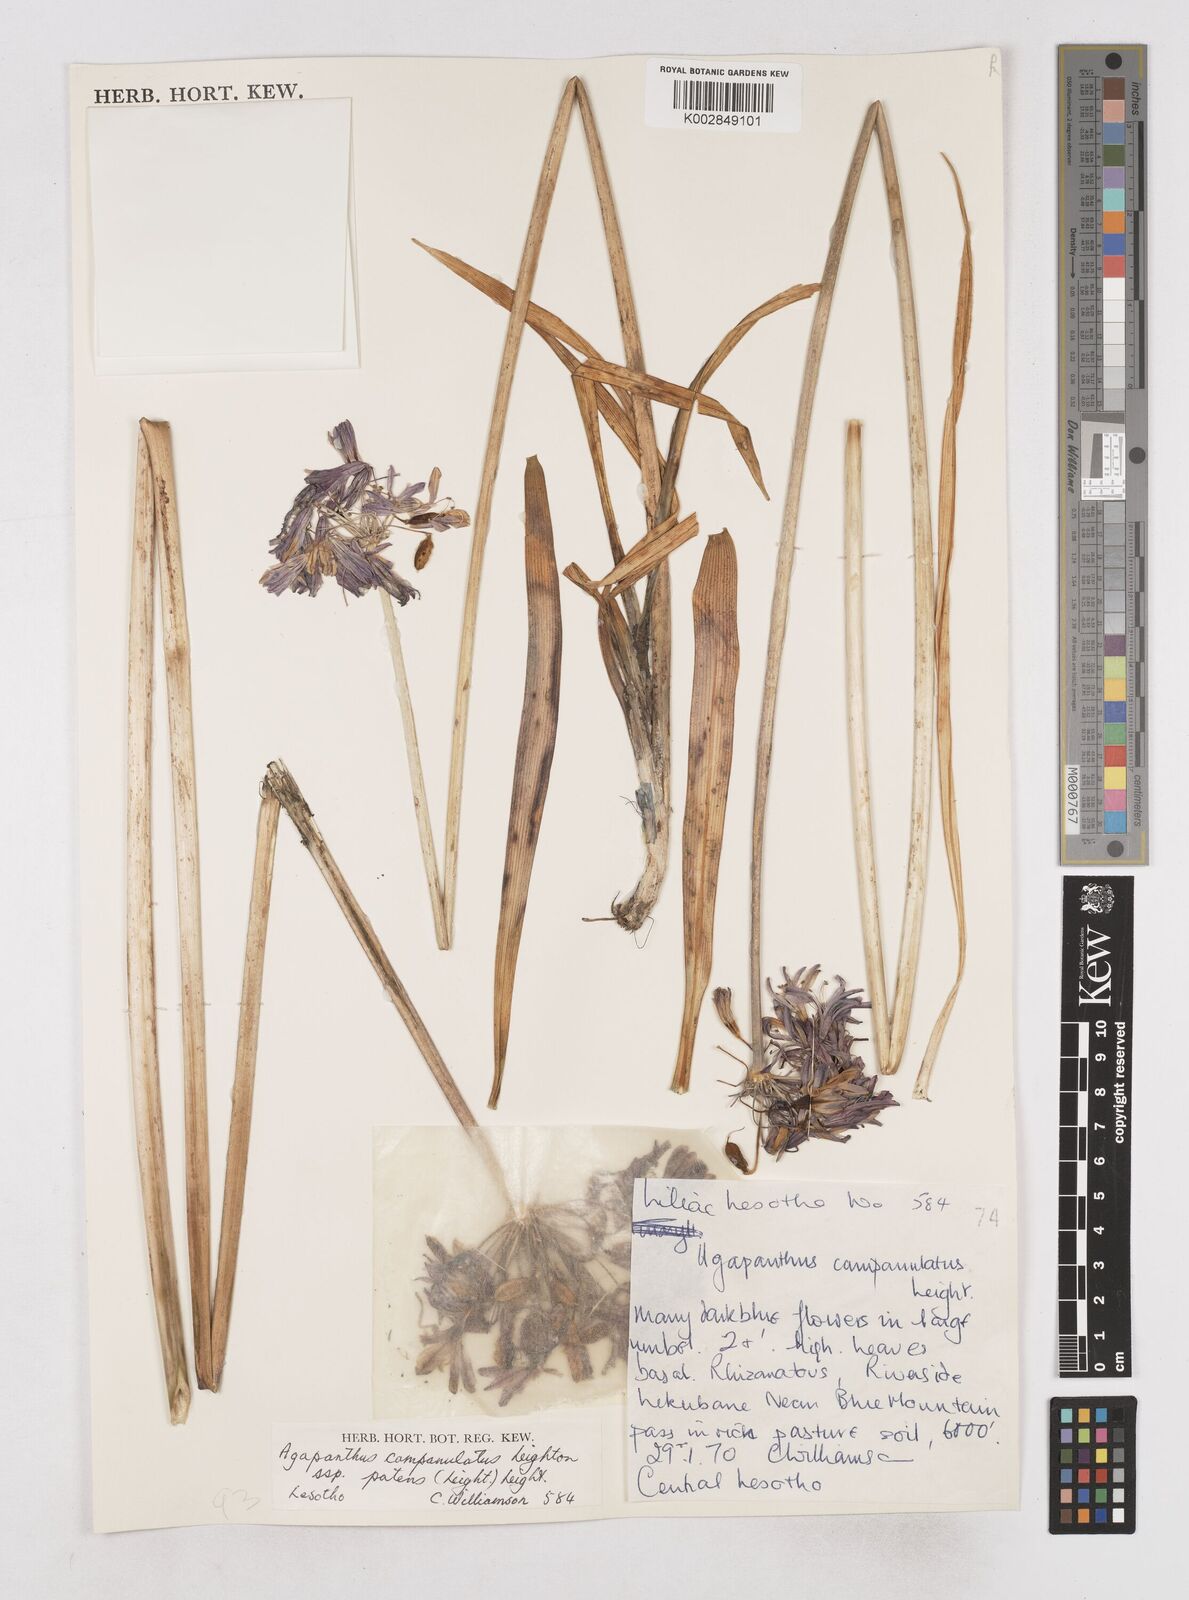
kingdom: Plantae
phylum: Tracheophyta
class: Liliopsida
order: Asparagales
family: Amaryllidaceae
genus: Agapanthus
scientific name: Agapanthus campanulatus
